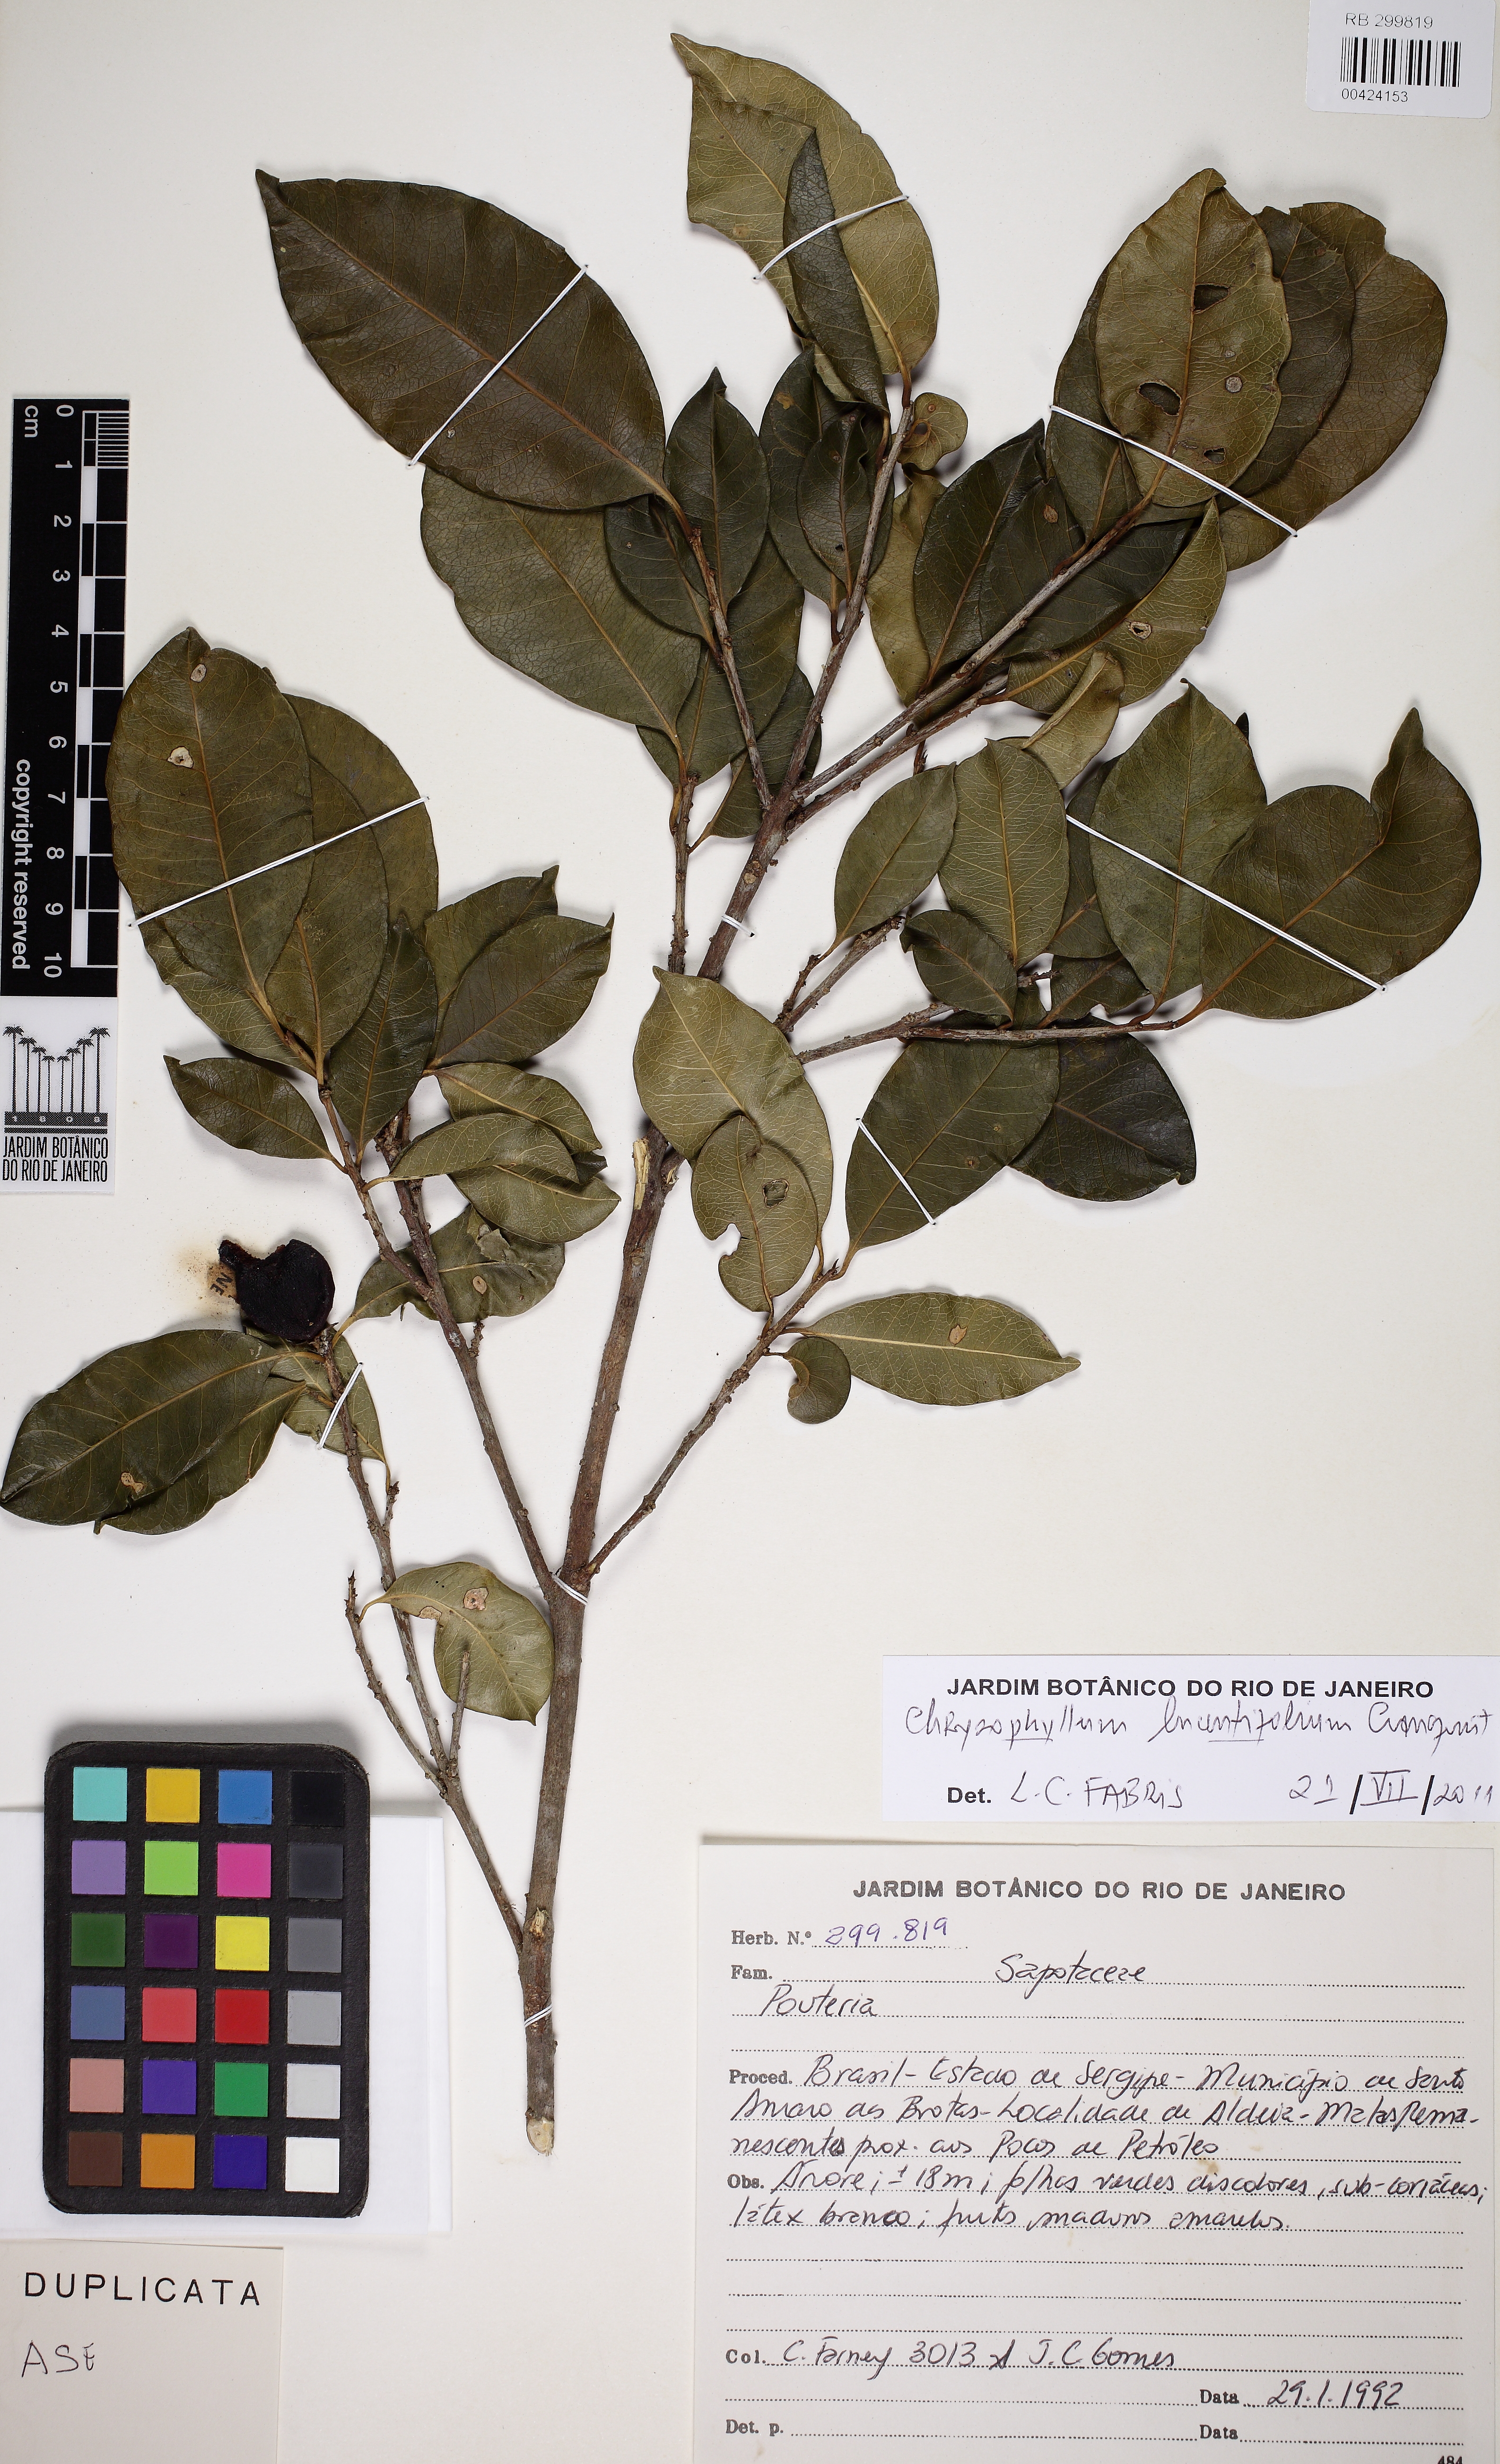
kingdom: Plantae
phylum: Tracheophyta
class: Magnoliopsida
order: Ericales
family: Sapotaceae
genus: Chrysophyllum
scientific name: Chrysophyllum lucentifolium
